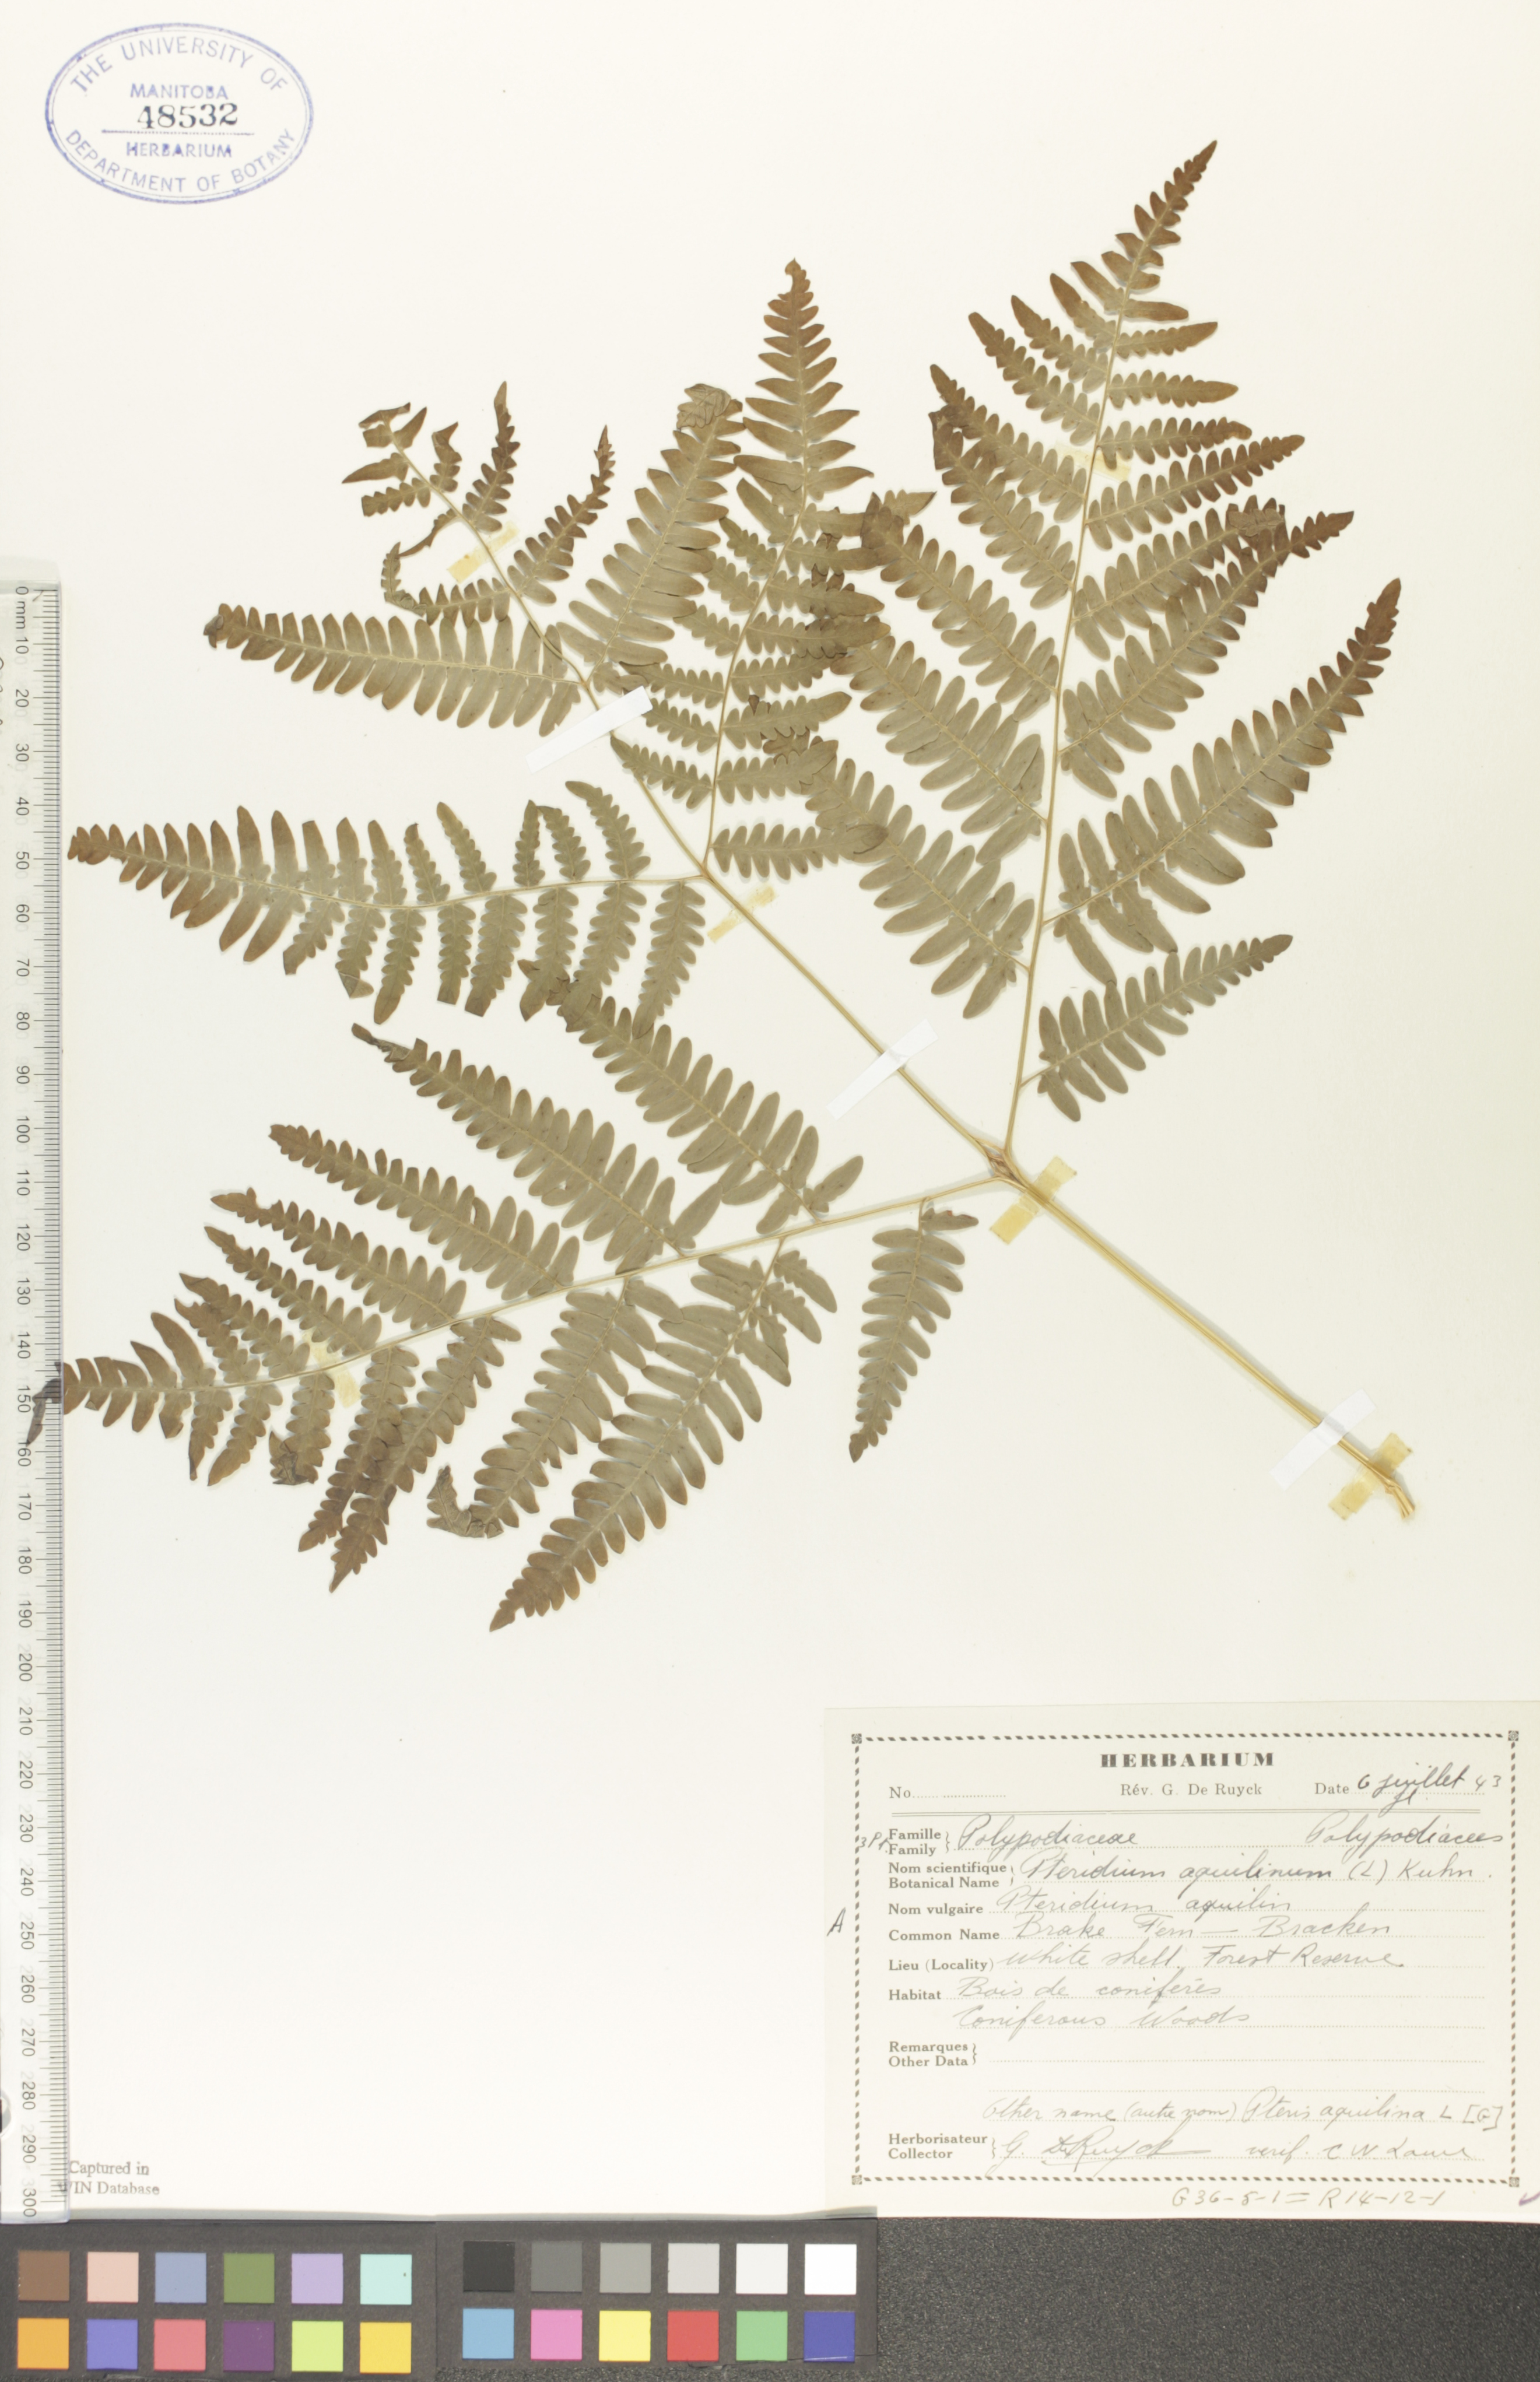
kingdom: Plantae
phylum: Tracheophyta
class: Polypodiopsida
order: Polypodiales
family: Dennstaedtiaceae
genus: Pteridium
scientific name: Pteridium aquilinum
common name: Bracken
